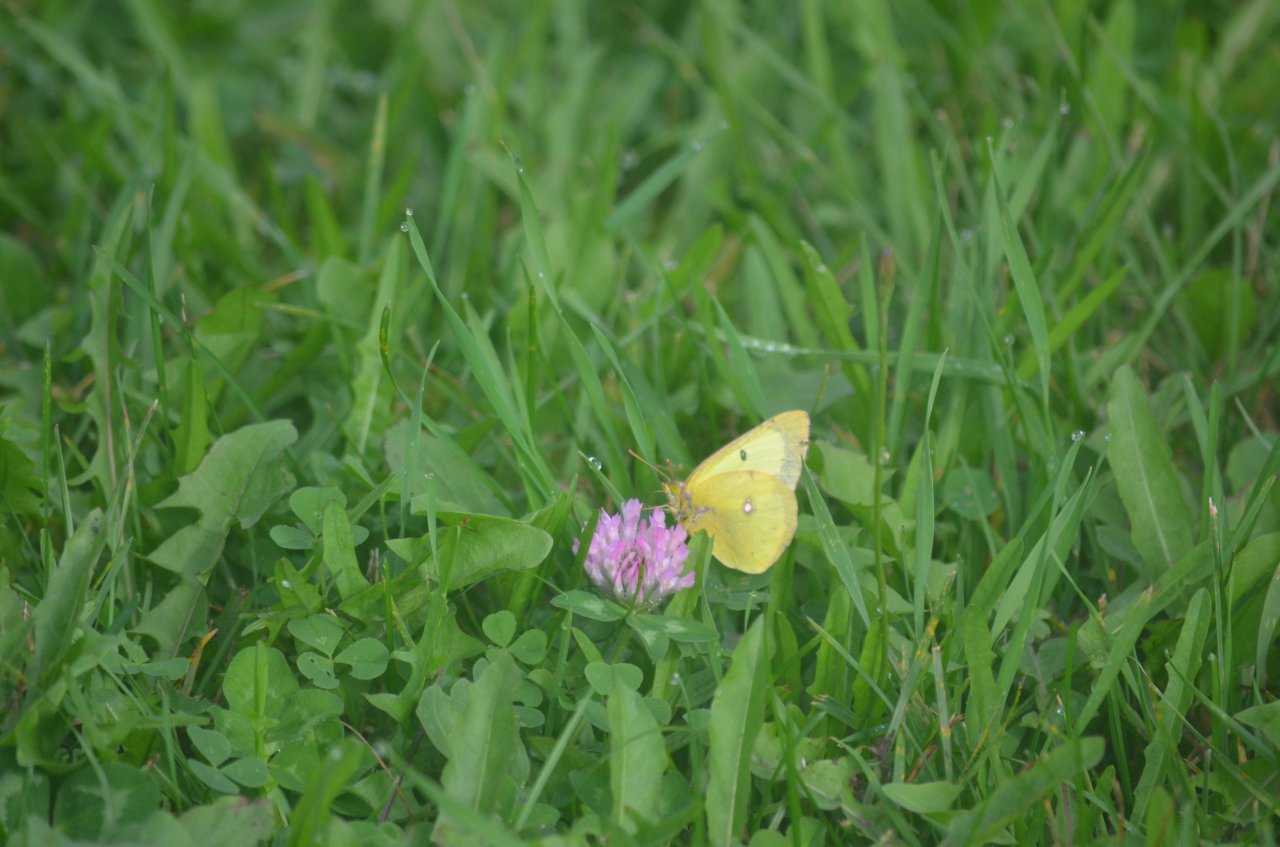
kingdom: Animalia
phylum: Arthropoda
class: Insecta
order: Lepidoptera
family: Pieridae
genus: Colias
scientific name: Colias philodice
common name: Clouded Sulphur
